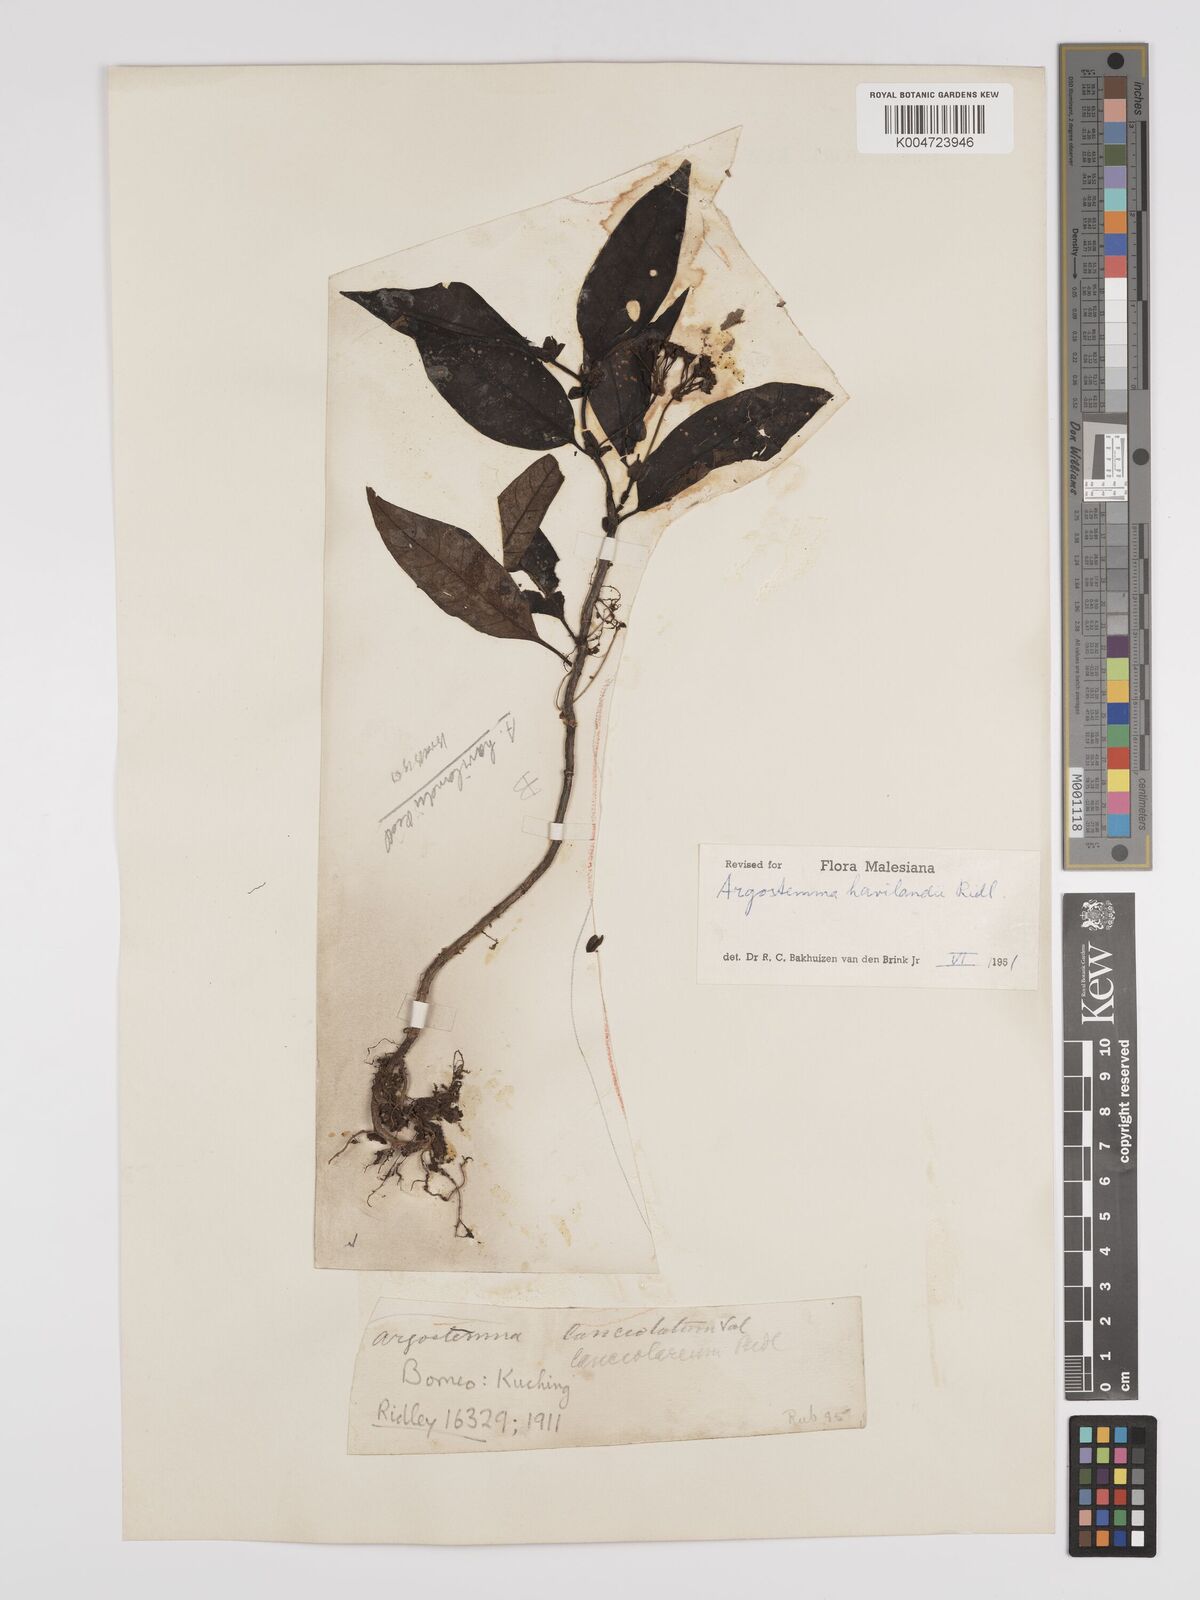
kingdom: Plantae
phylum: Tracheophyta
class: Magnoliopsida
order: Gentianales
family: Rubiaceae
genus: Argostemma
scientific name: Argostemma havilandii
